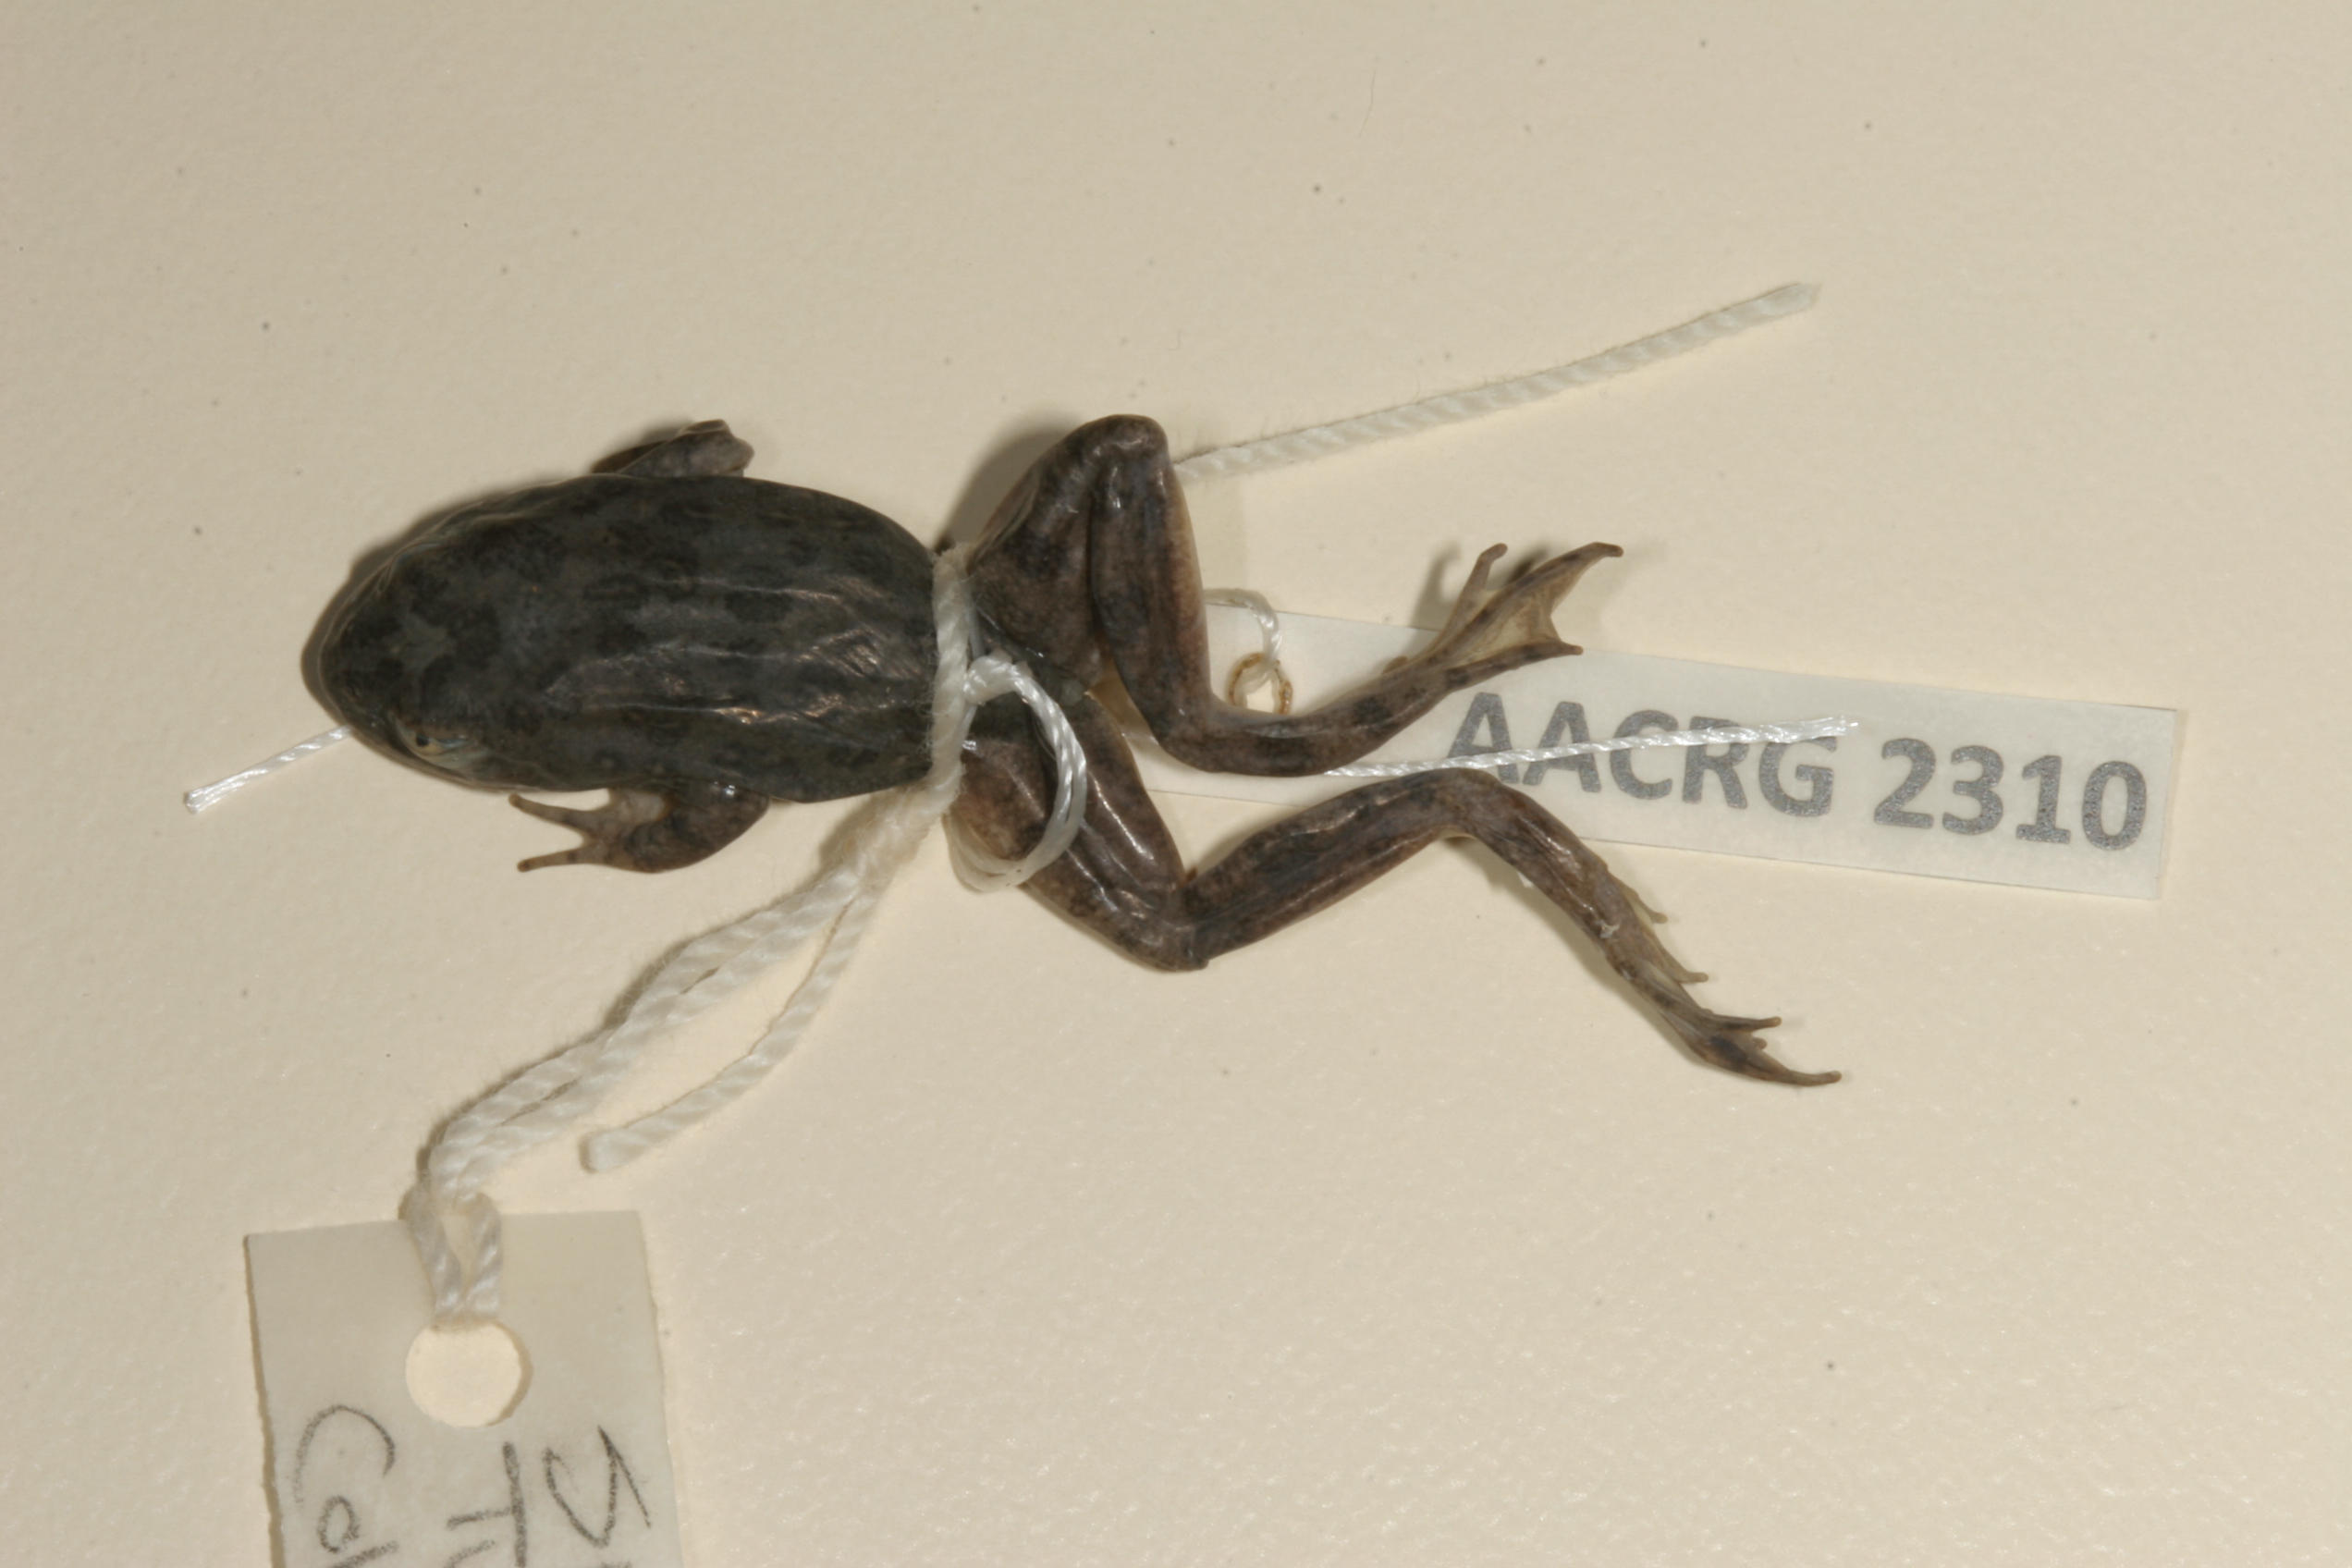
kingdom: Animalia
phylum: Chordata
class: Amphibia
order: Anura
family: Pyxicephalidae
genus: Amietia
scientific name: Amietia vertebralis
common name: Drakensberg stream frog
